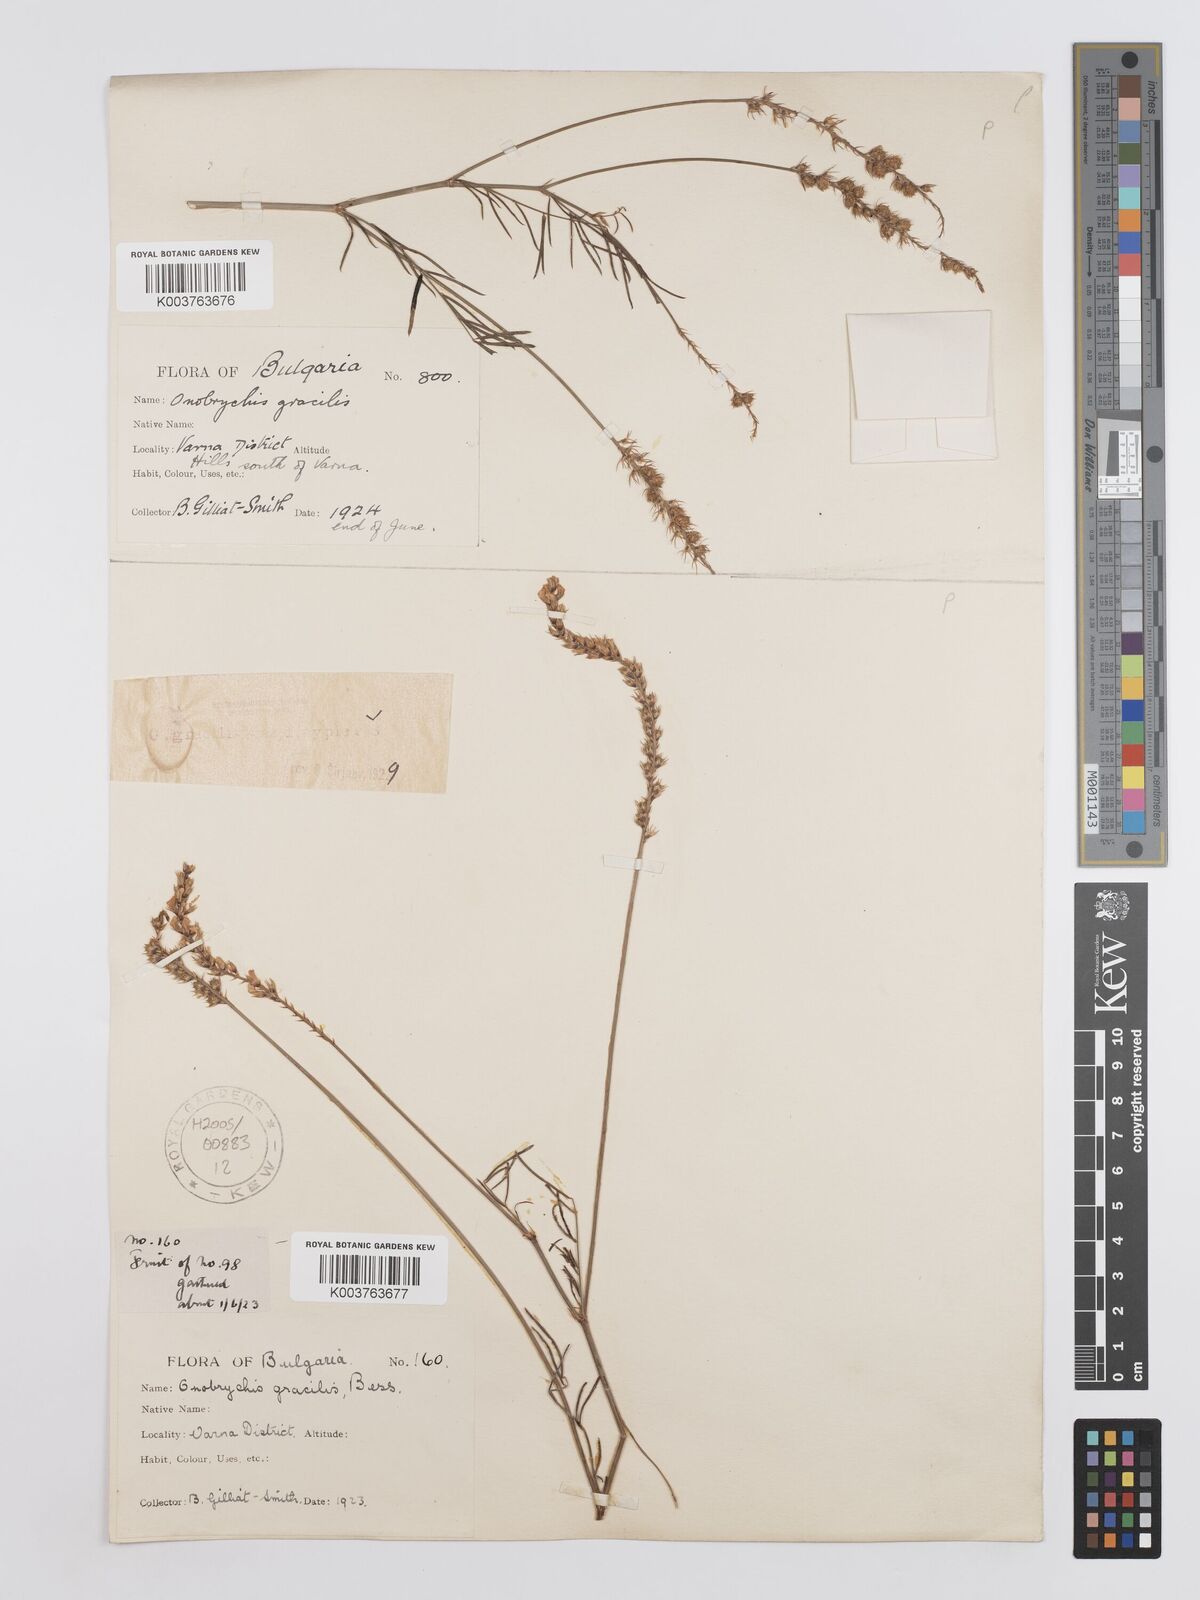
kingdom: Plantae
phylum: Tracheophyta
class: Magnoliopsida
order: Fabales
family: Fabaceae
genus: Onobrychis
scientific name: Onobrychis gracilis
